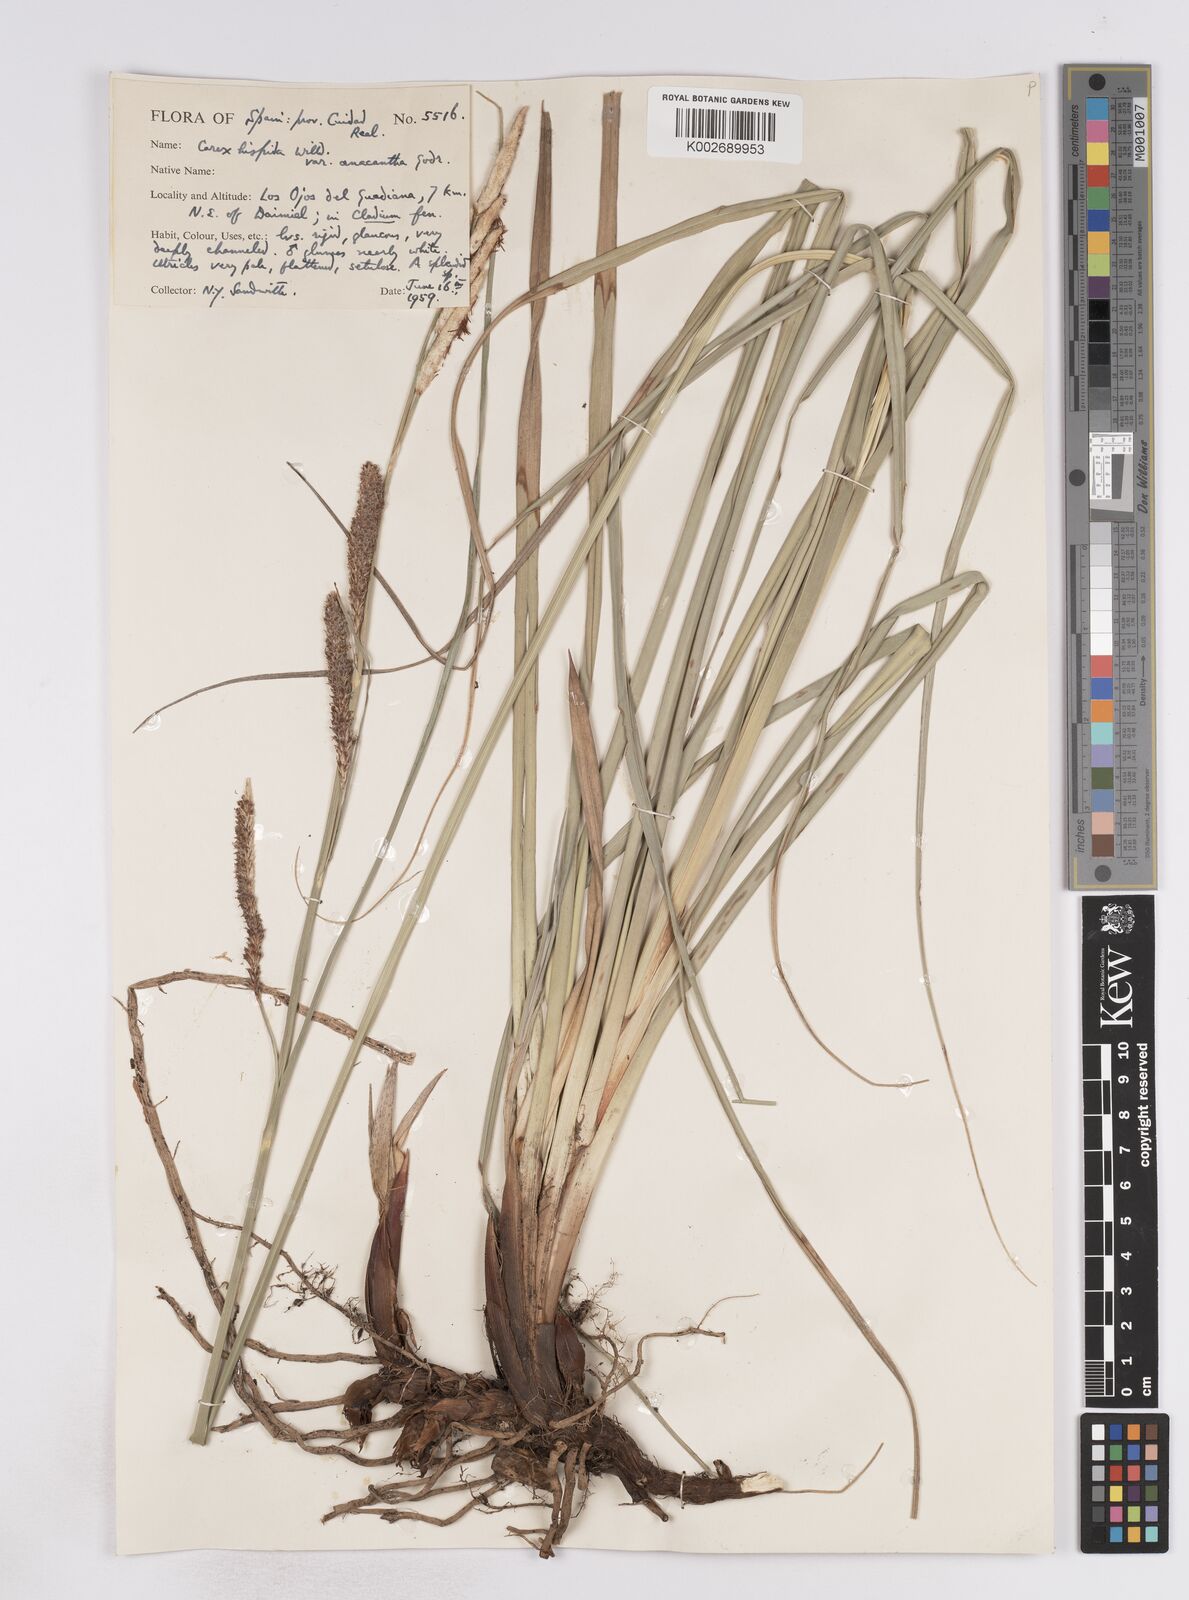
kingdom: Plantae
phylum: Tracheophyta
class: Liliopsida
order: Poales
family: Cyperaceae
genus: Carex
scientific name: Carex hispida
